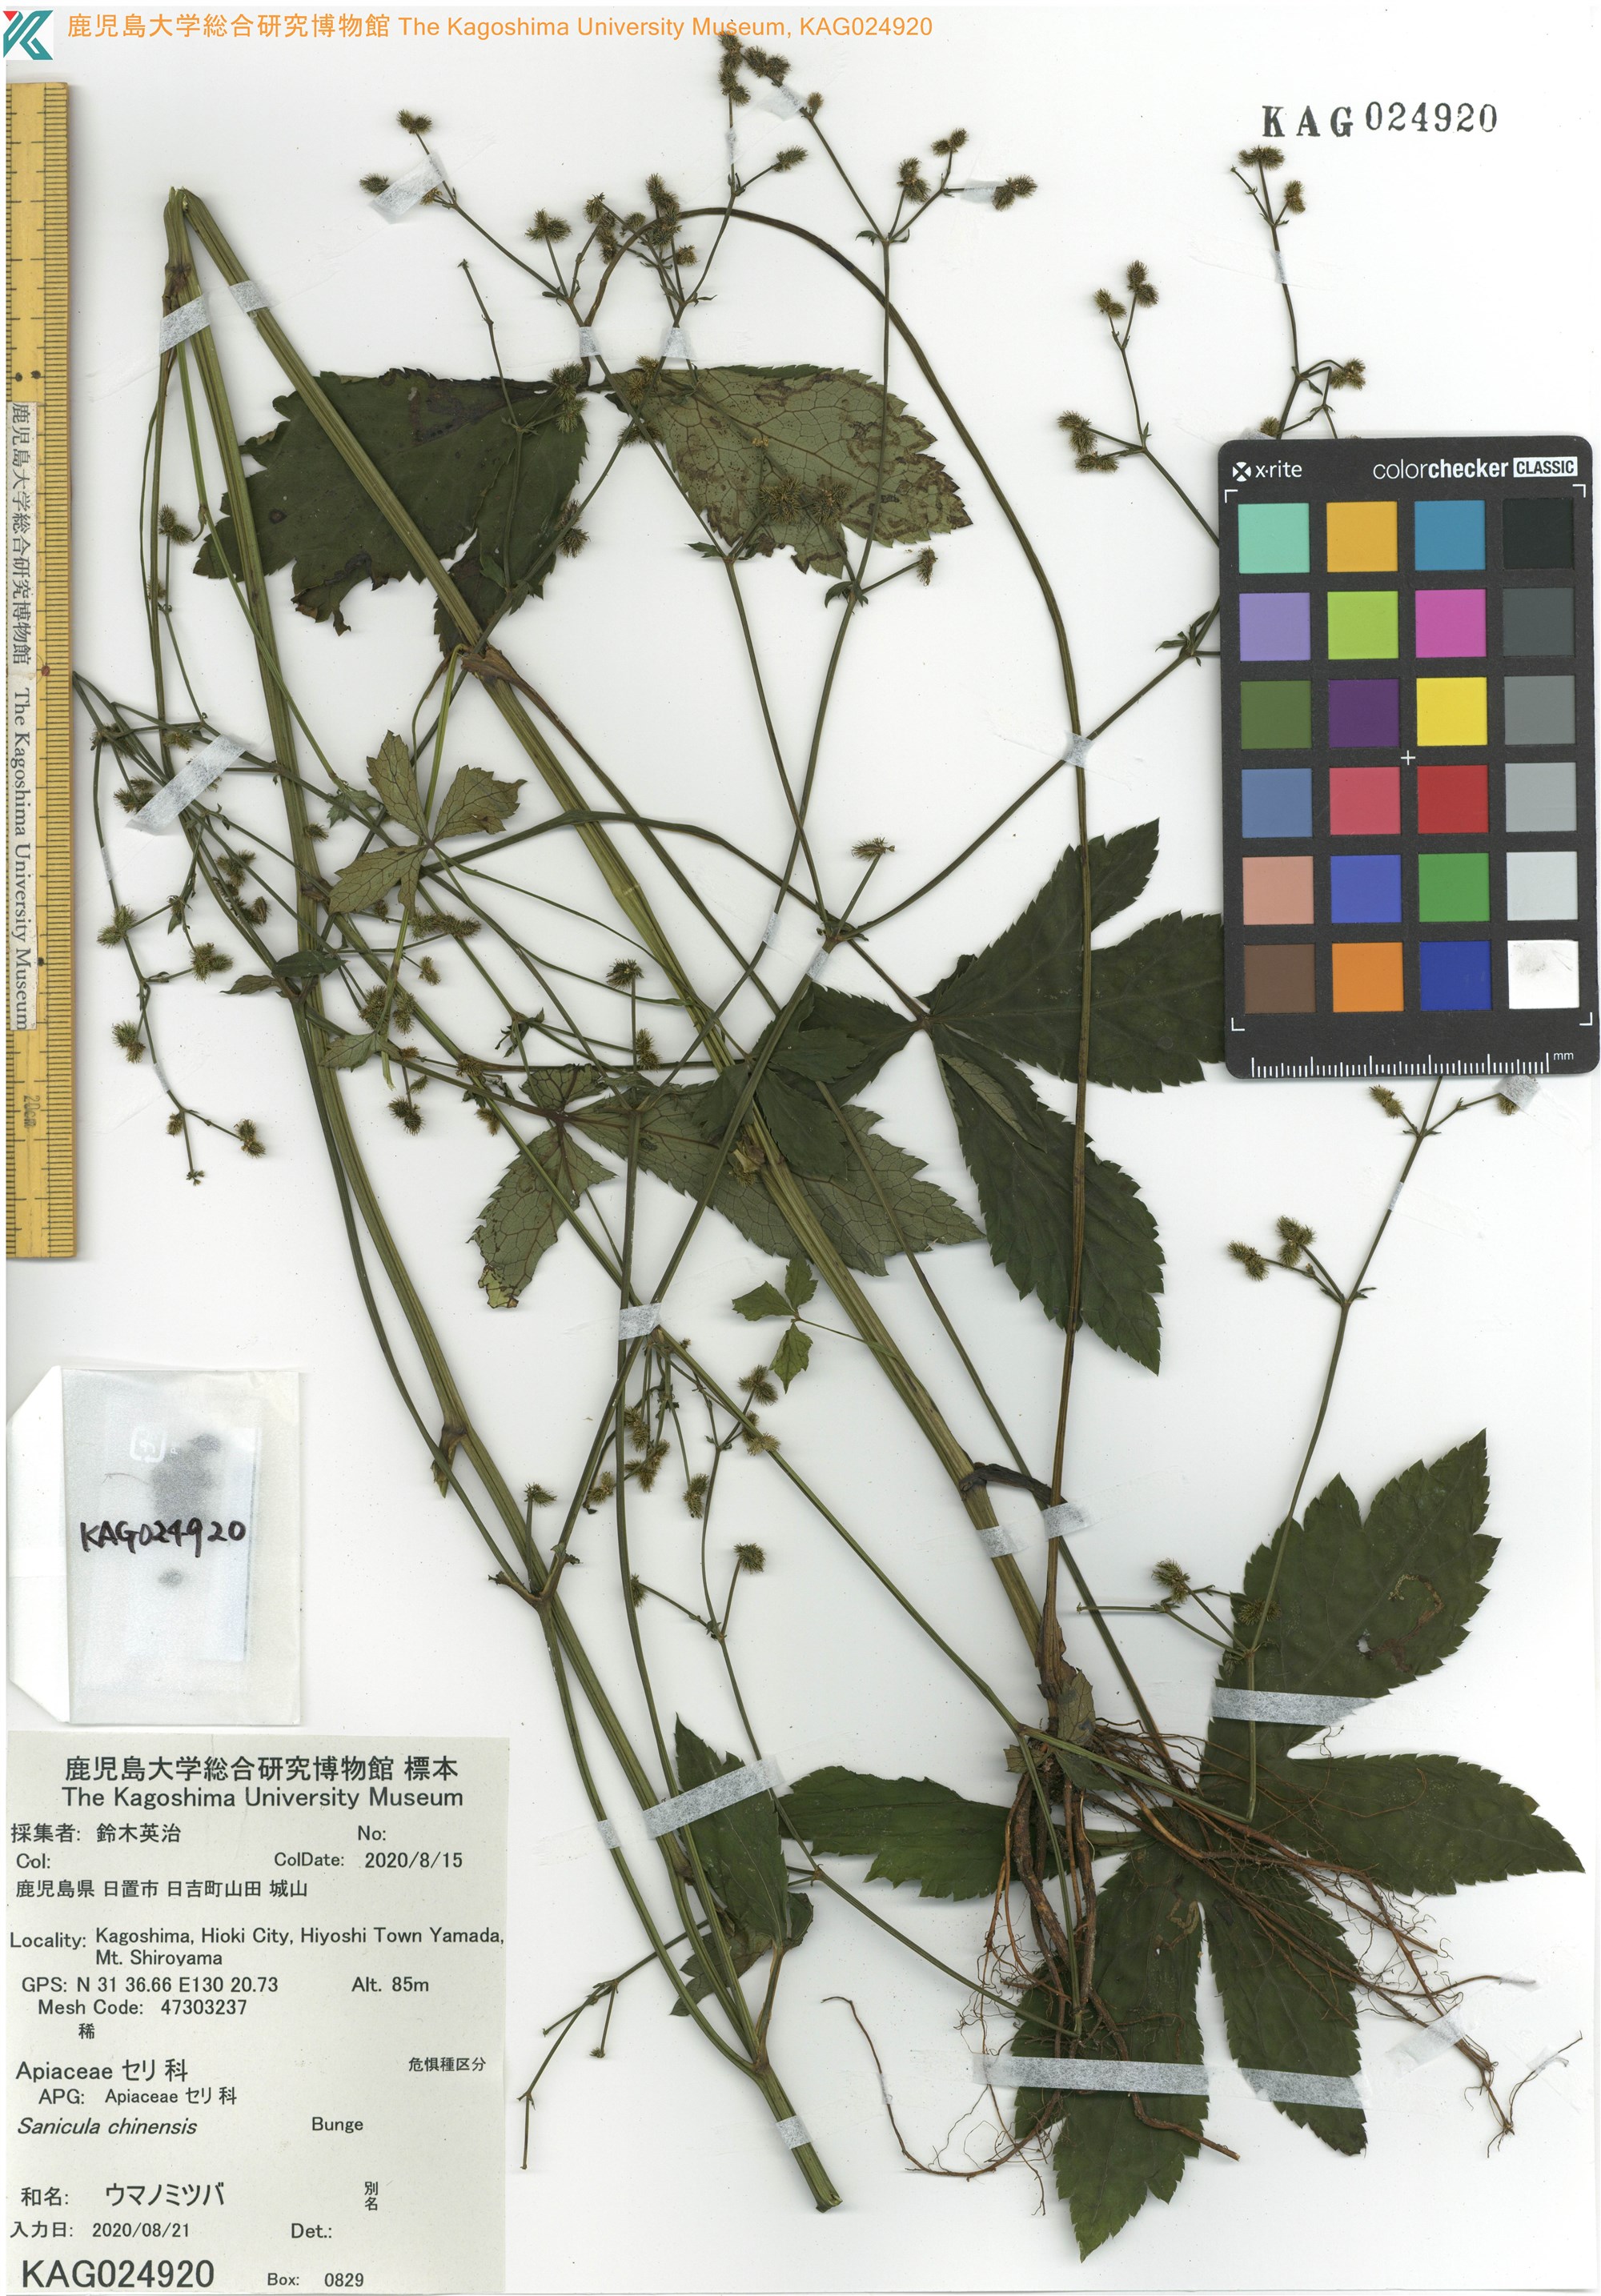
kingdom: Plantae
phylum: Tracheophyta
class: Magnoliopsida
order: Apiales
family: Apiaceae
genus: Sanicula
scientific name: Sanicula chinensis
